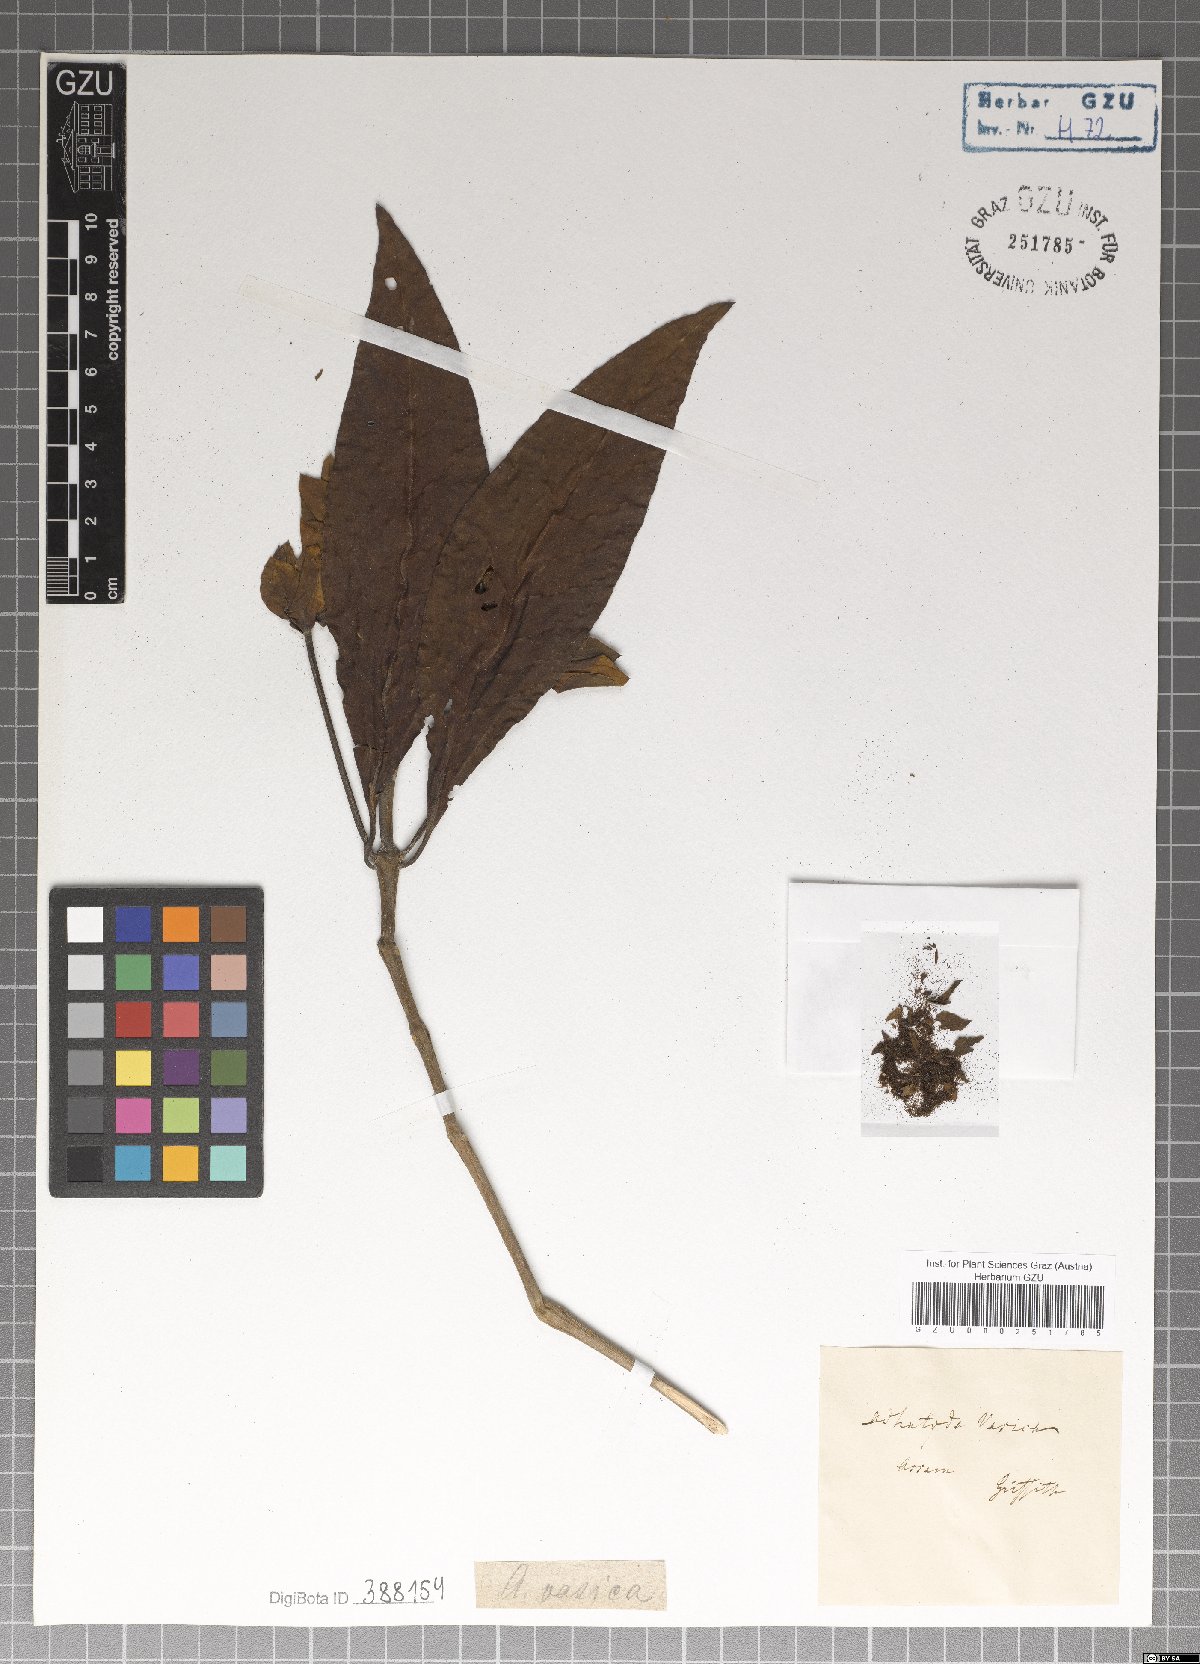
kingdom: Plantae
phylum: Tracheophyta
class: Magnoliopsida
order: Lamiales
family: Acanthaceae
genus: Justicia
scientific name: Justicia adhatoda
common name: Malabar nut
